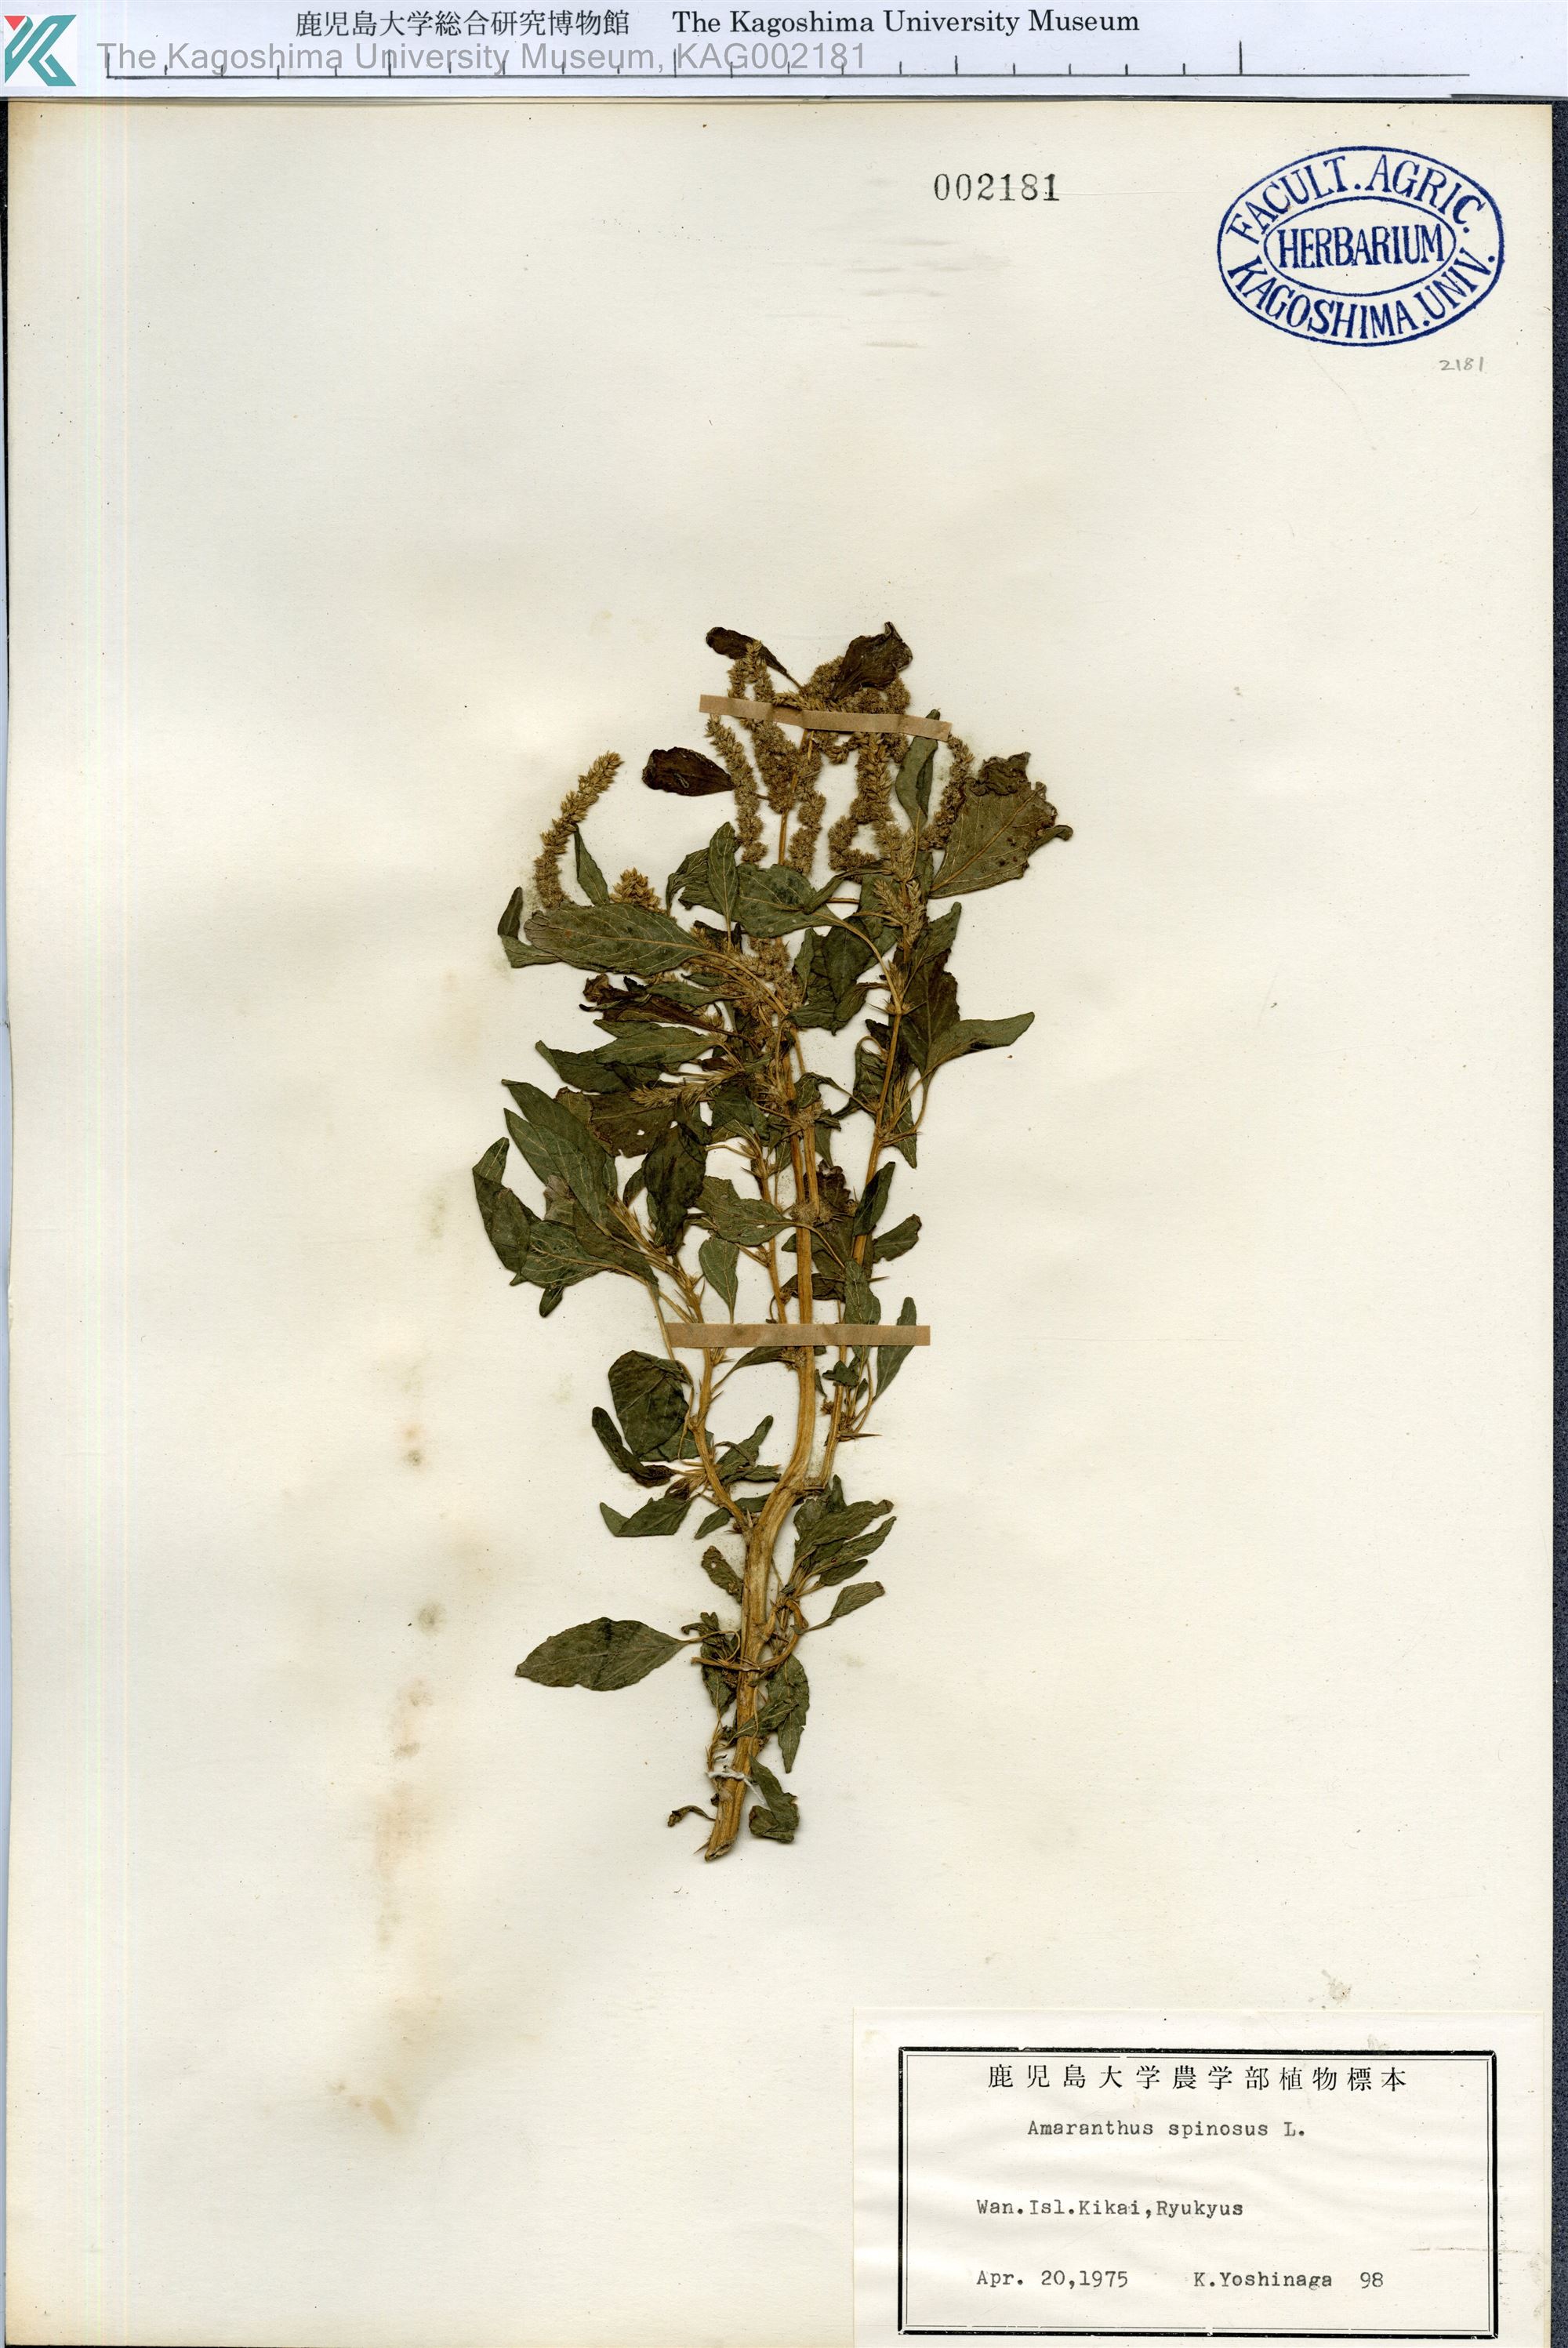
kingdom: Plantae
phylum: Tracheophyta
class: Magnoliopsida
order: Caryophyllales
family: Amaranthaceae
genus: Amaranthus
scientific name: Amaranthus spinosus
